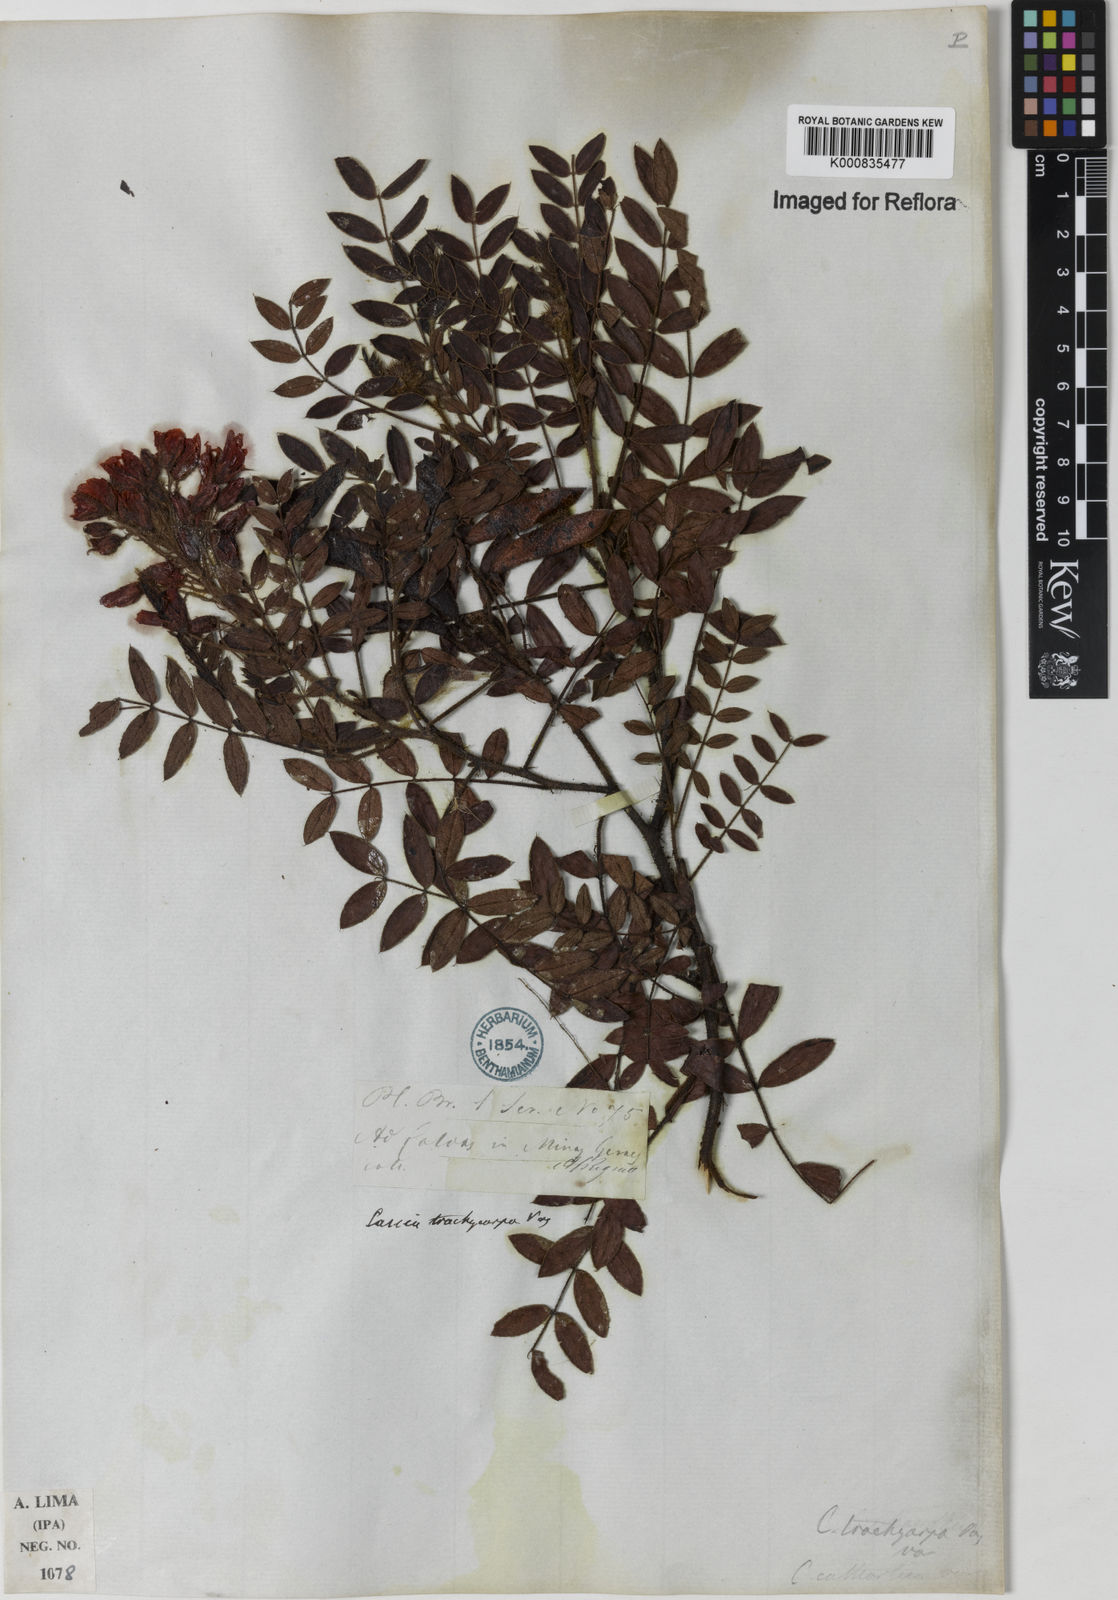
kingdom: Plantae
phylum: Tracheophyta
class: Magnoliopsida
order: Fabales
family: Fabaceae
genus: Chamaecrista
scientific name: Chamaecrista trachycarpa
